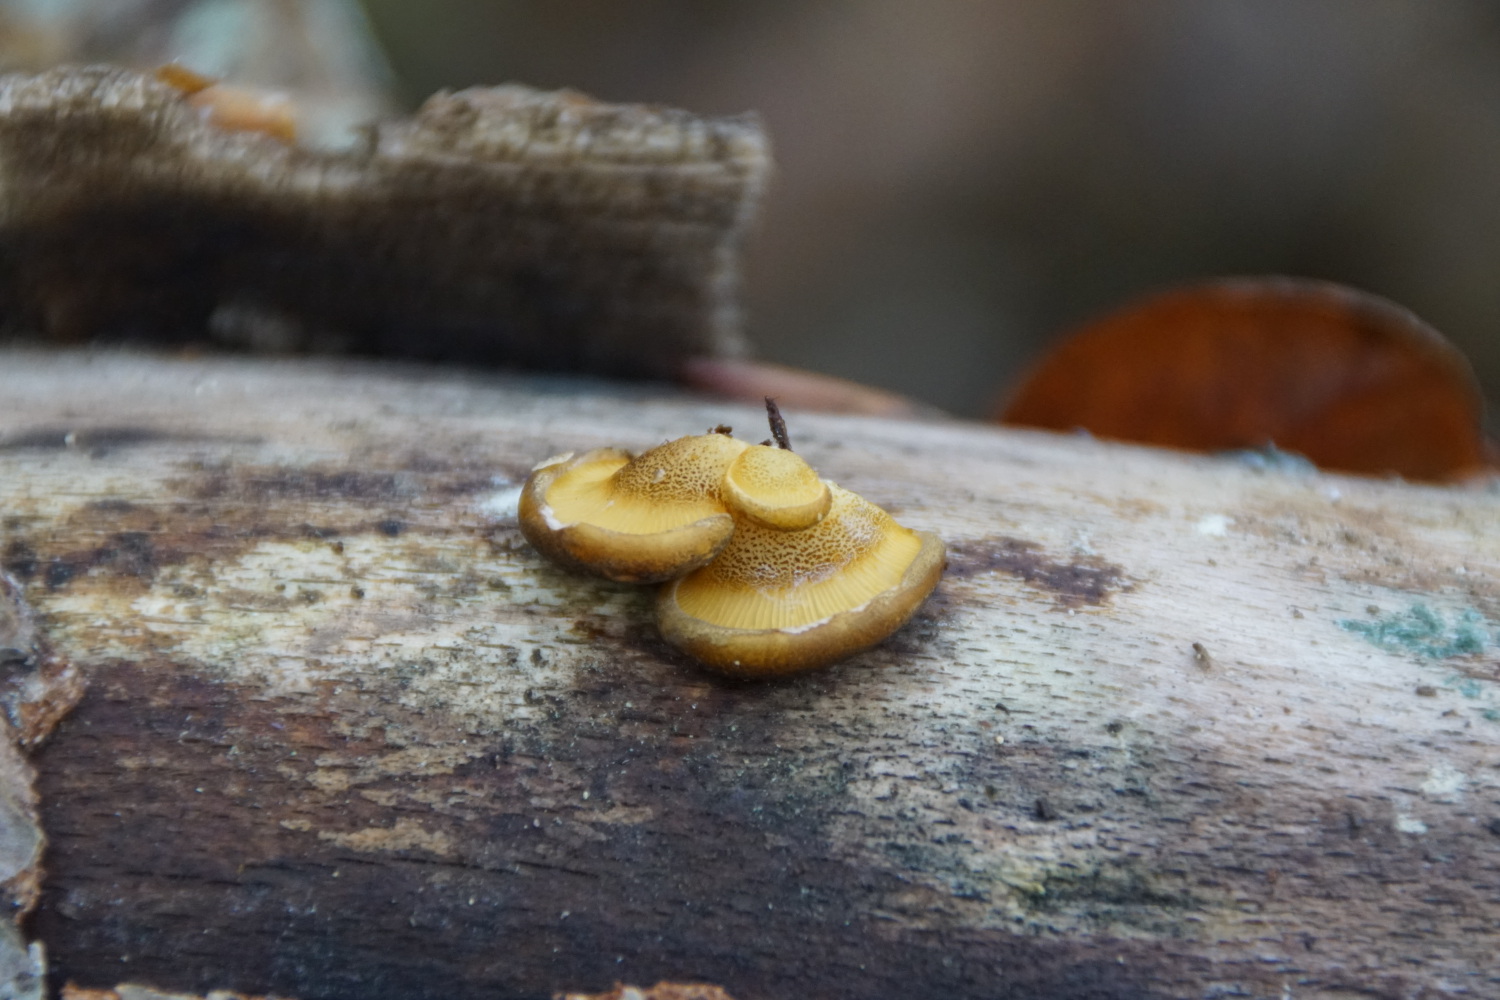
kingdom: Fungi
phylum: Basidiomycota
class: Agaricomycetes
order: Agaricales
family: Sarcomyxaceae
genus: Sarcomyxa
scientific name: Sarcomyxa serotina
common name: gummihat
